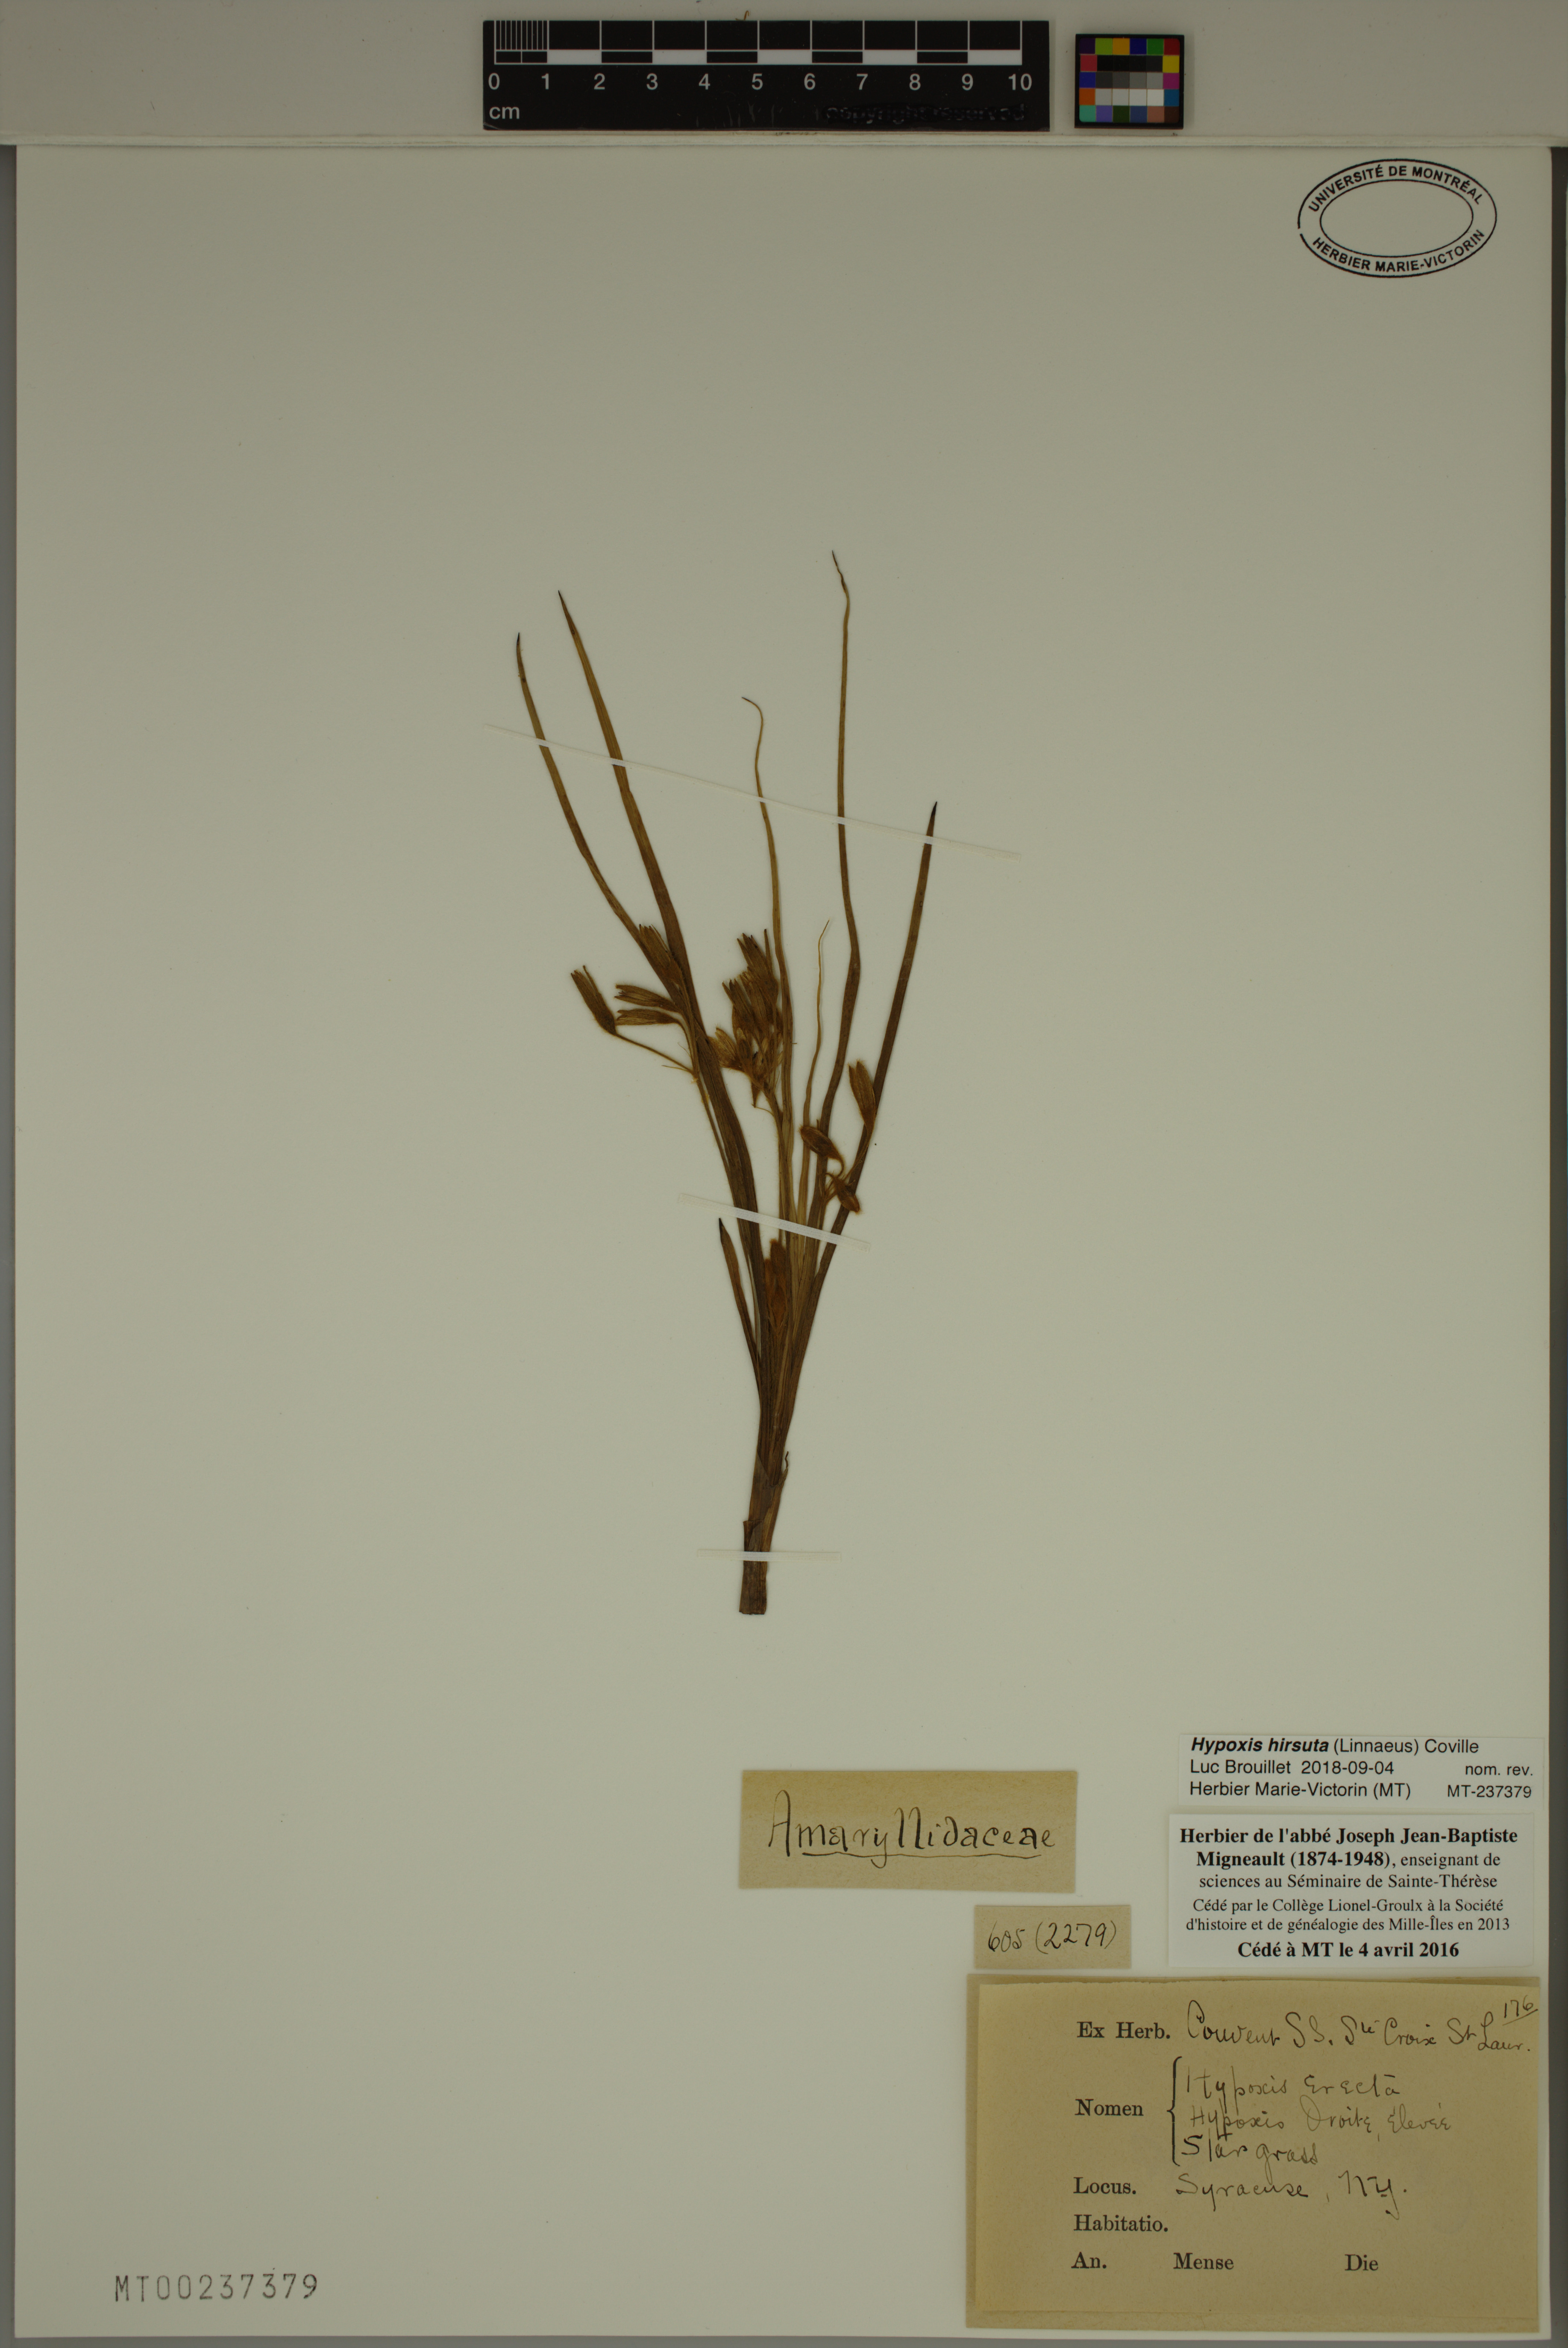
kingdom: Plantae
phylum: Tracheophyta
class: Liliopsida
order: Asparagales
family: Hypoxidaceae
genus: Hypoxis
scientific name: Hypoxis hirsuta
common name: Common goldstar
